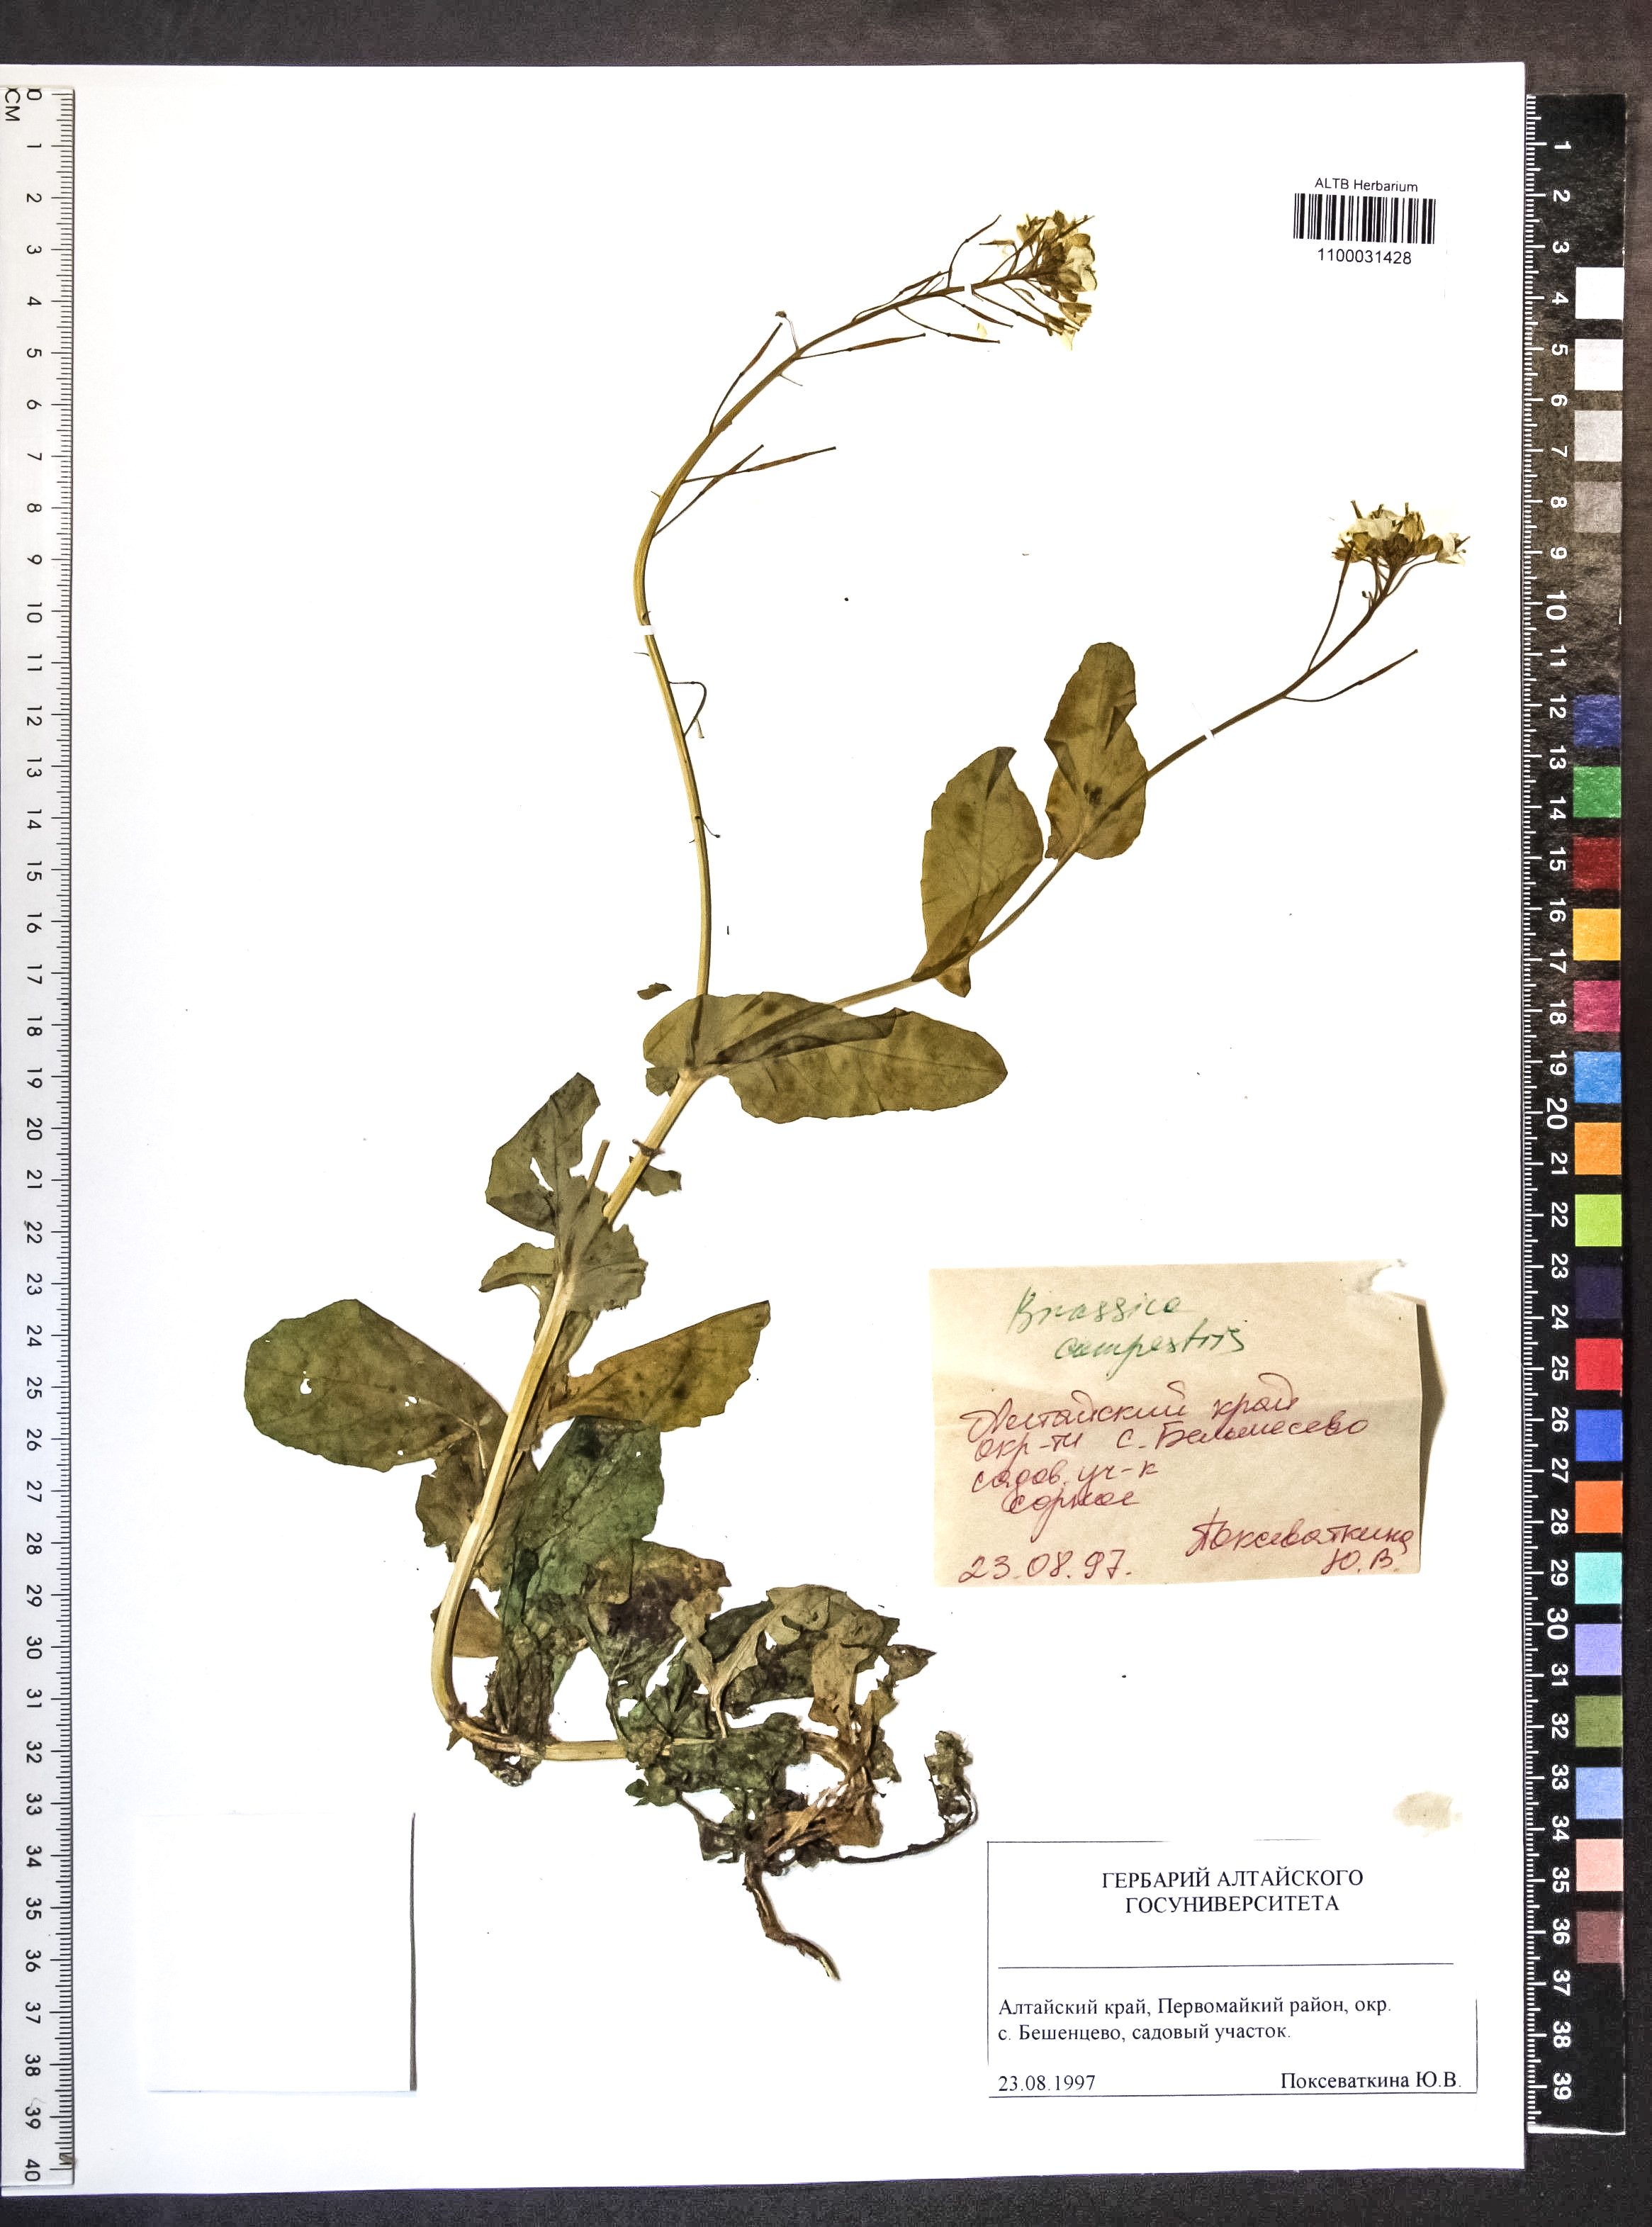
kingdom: Plantae
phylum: Tracheophyta
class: Magnoliopsida
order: Brassicales
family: Brassicaceae
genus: Brassica
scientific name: Brassica rapa
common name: Field mustard
